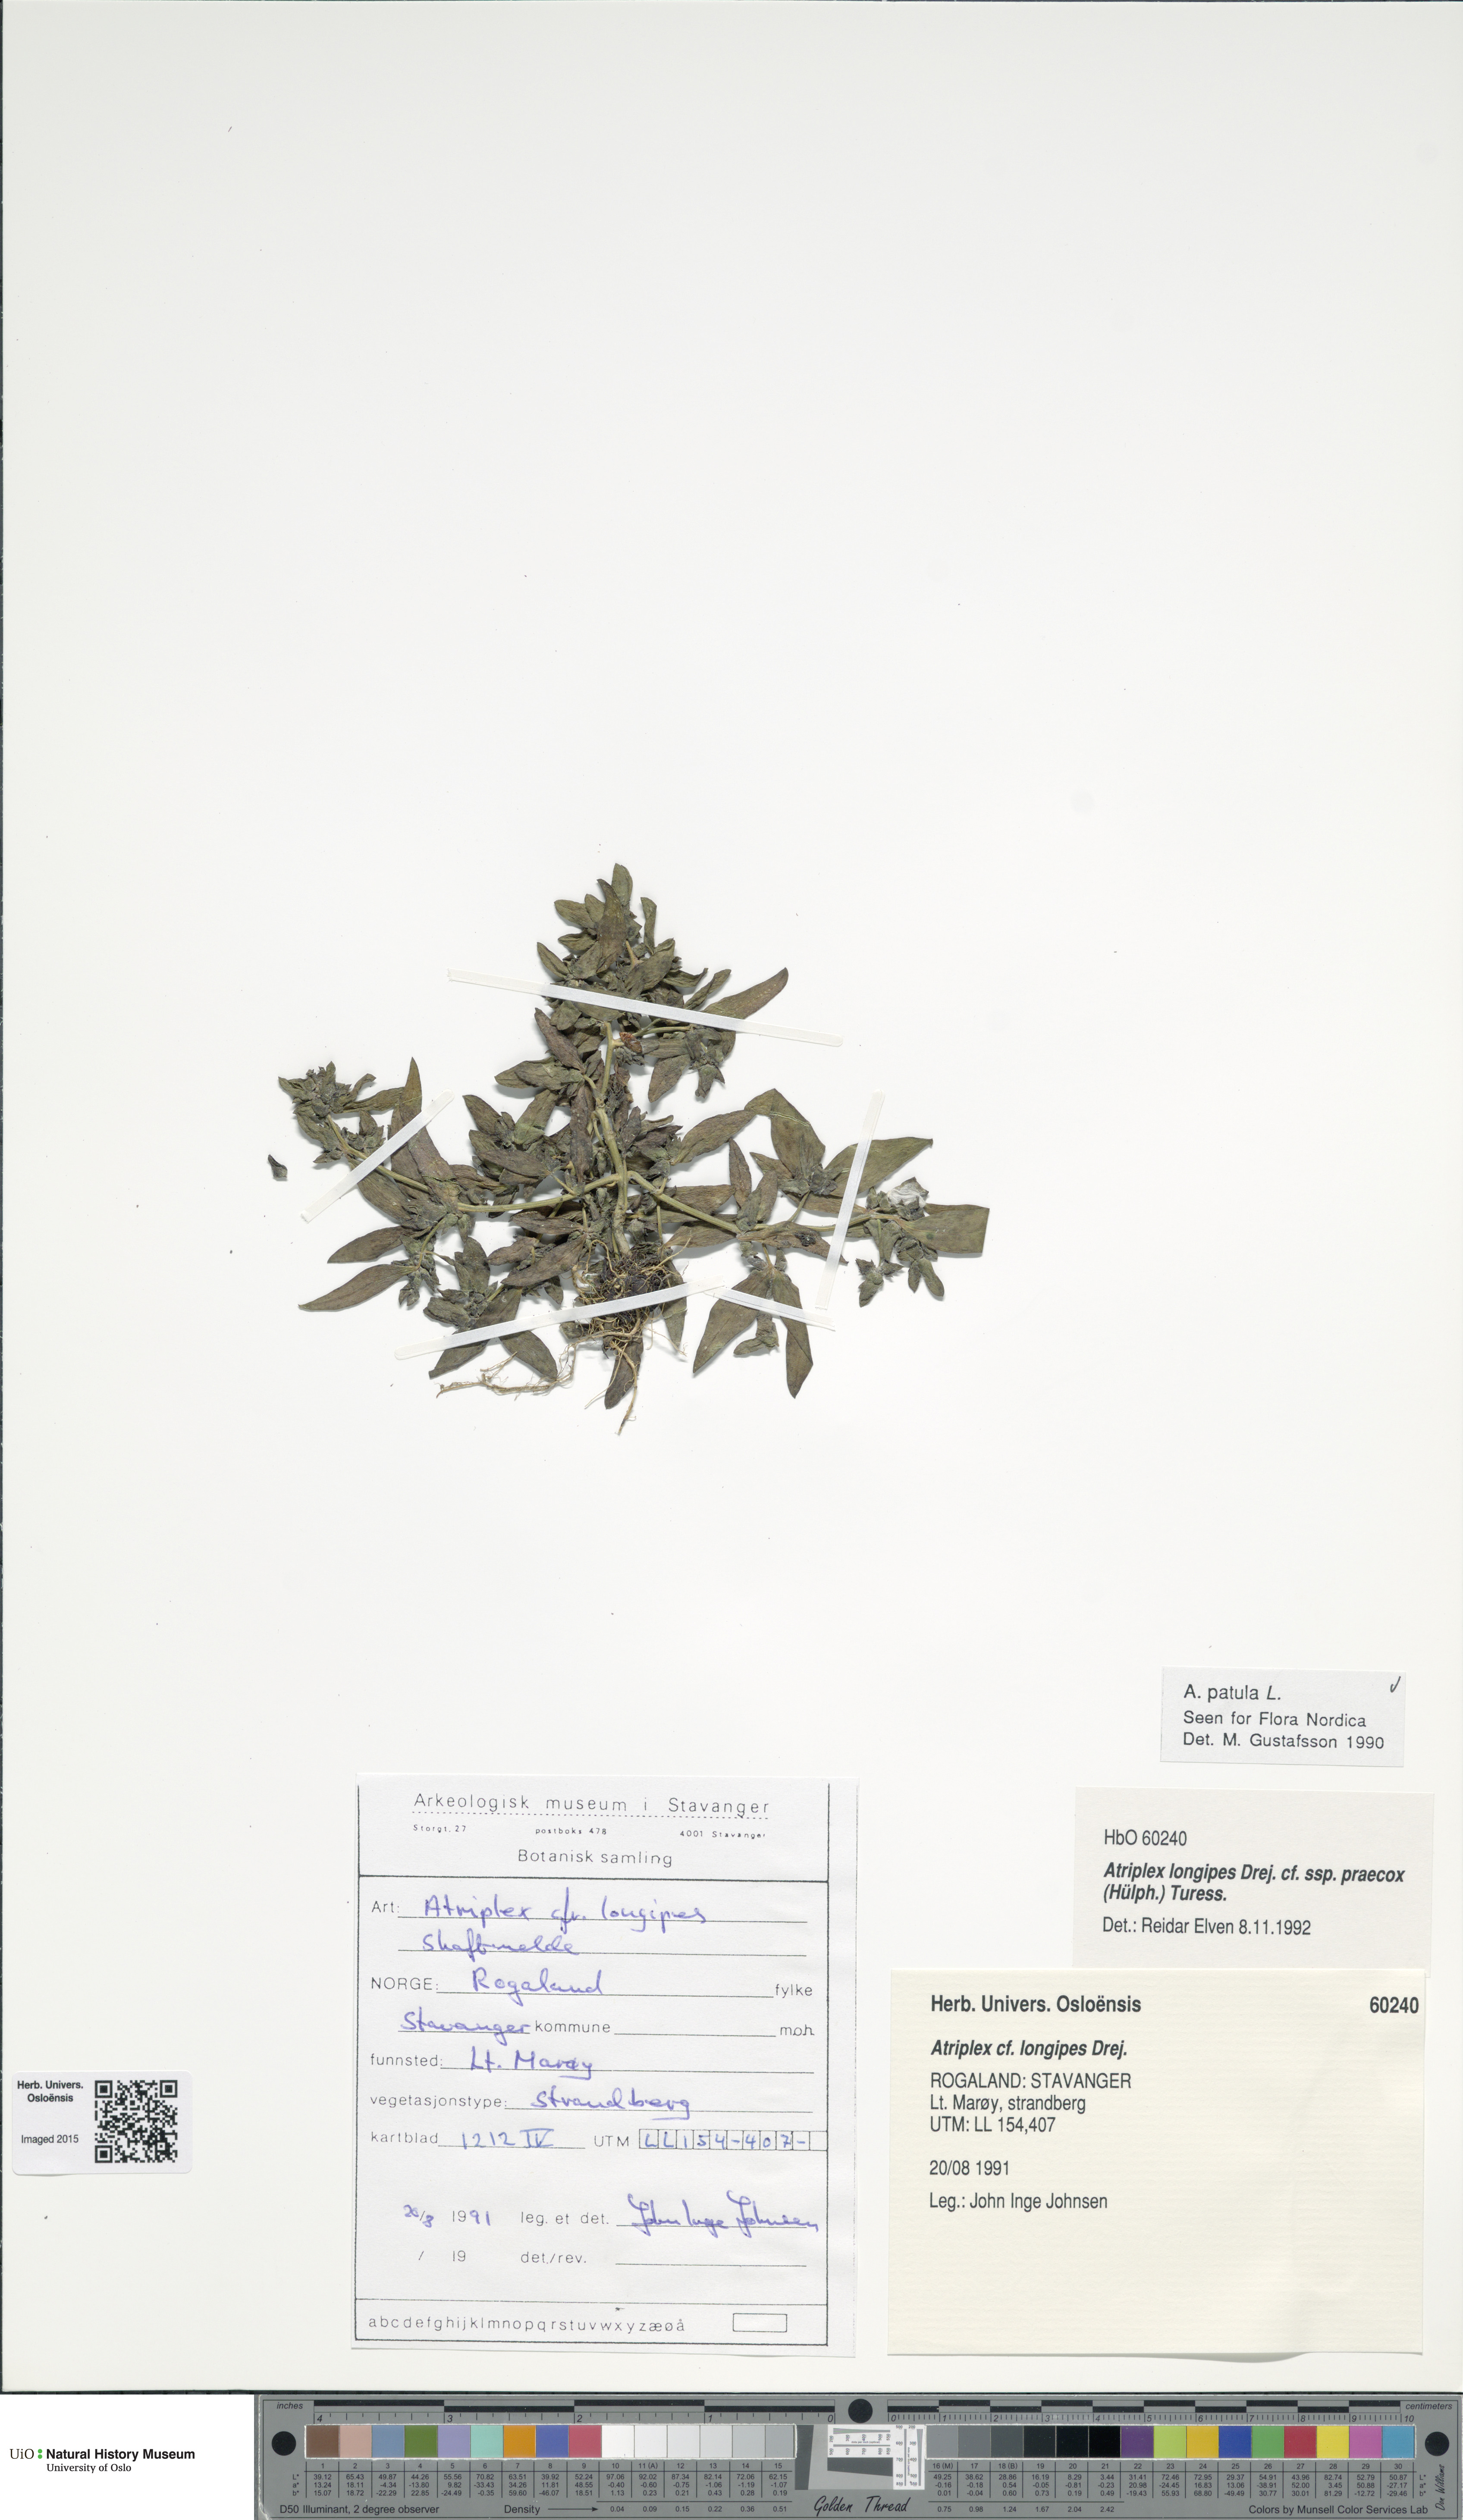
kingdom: Plantae
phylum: Tracheophyta
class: Magnoliopsida
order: Caryophyllales
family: Amaranthaceae
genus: Atriplex
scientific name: Atriplex praecox
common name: Early orache
